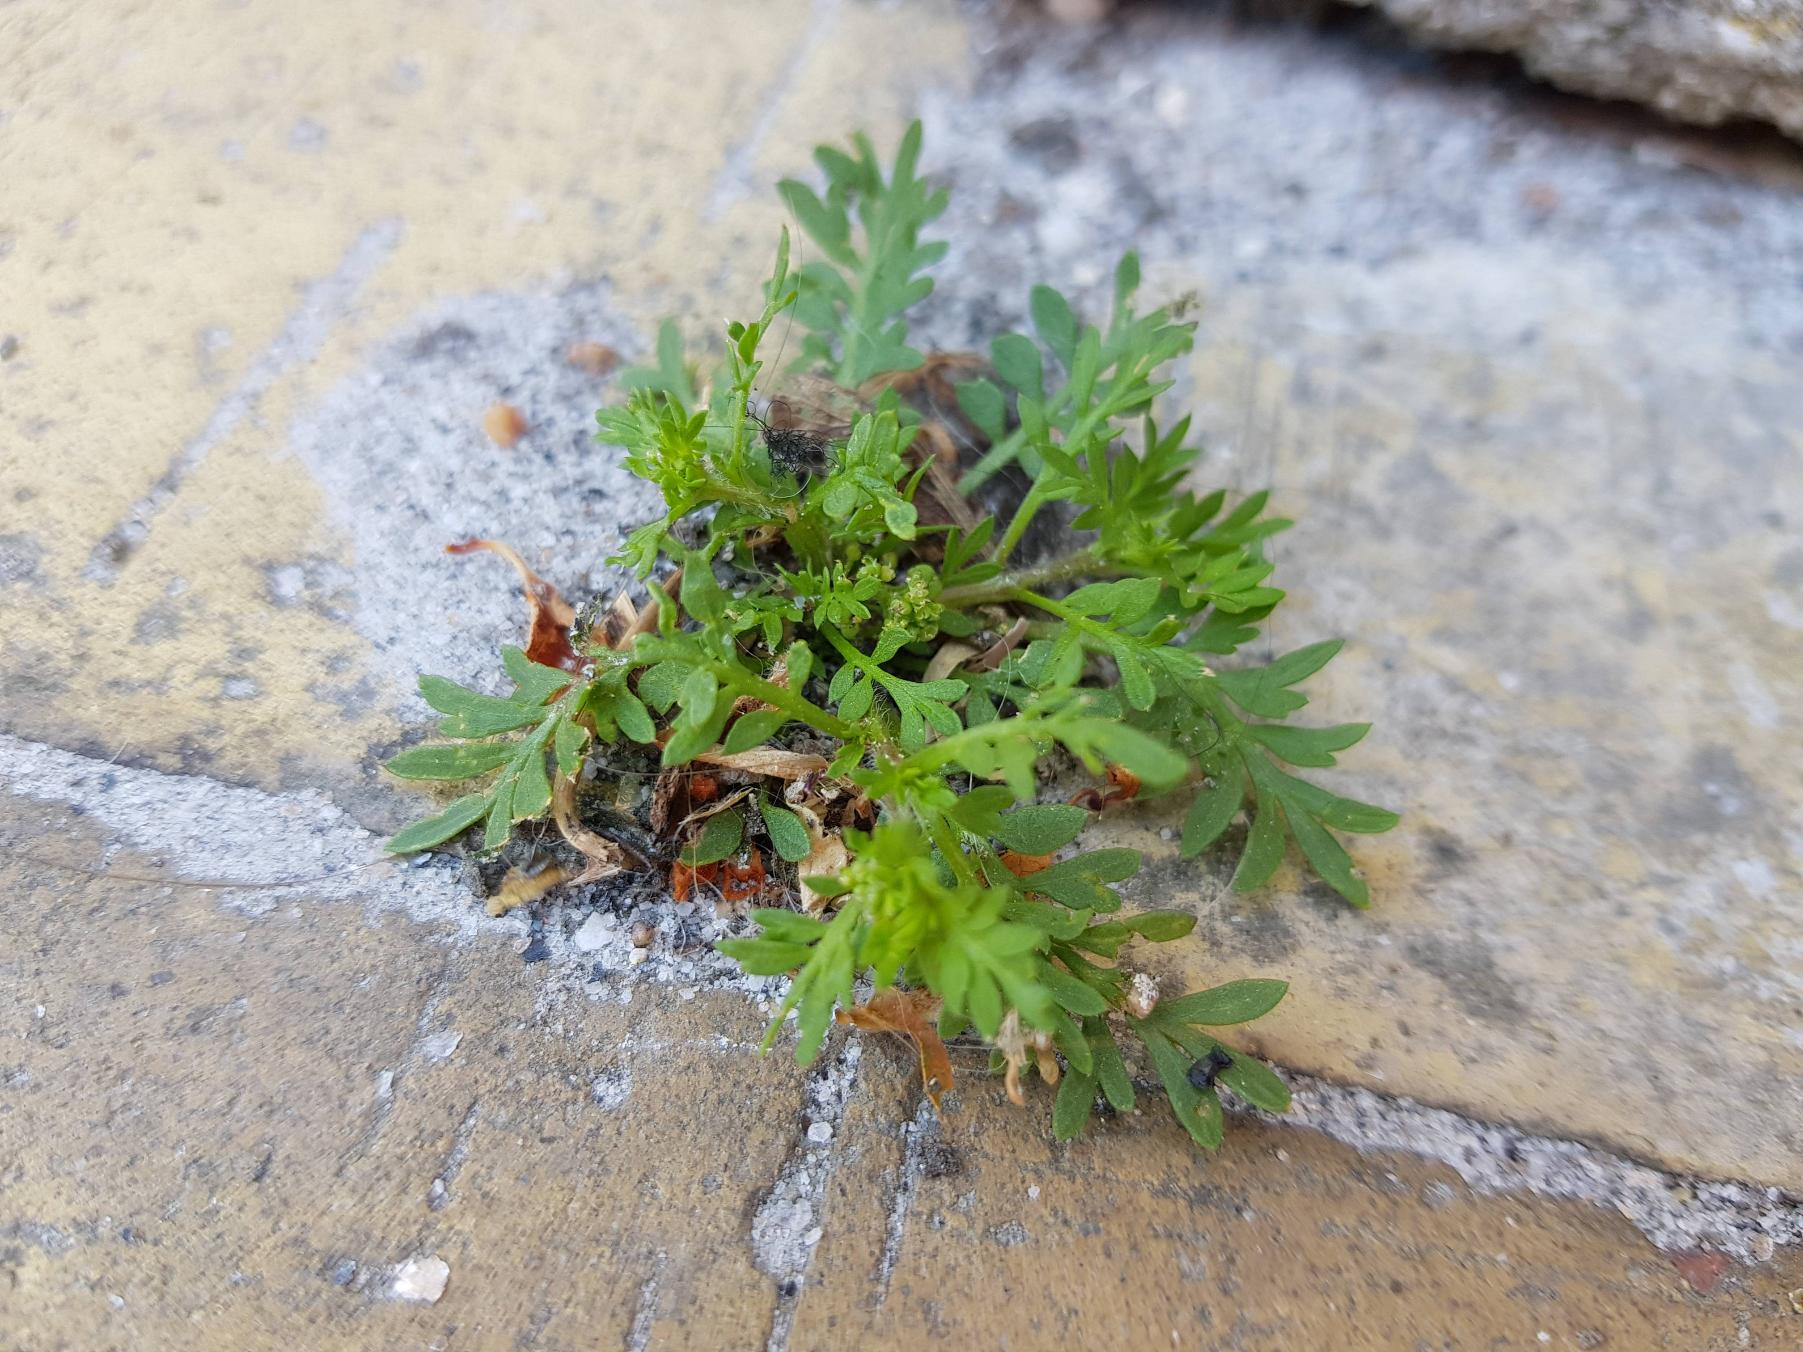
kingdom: Plantae
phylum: Tracheophyta
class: Magnoliopsida
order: Brassicales
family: Brassicaceae
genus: Lepidium
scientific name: Lepidium didymum
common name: Liden ravnefod
